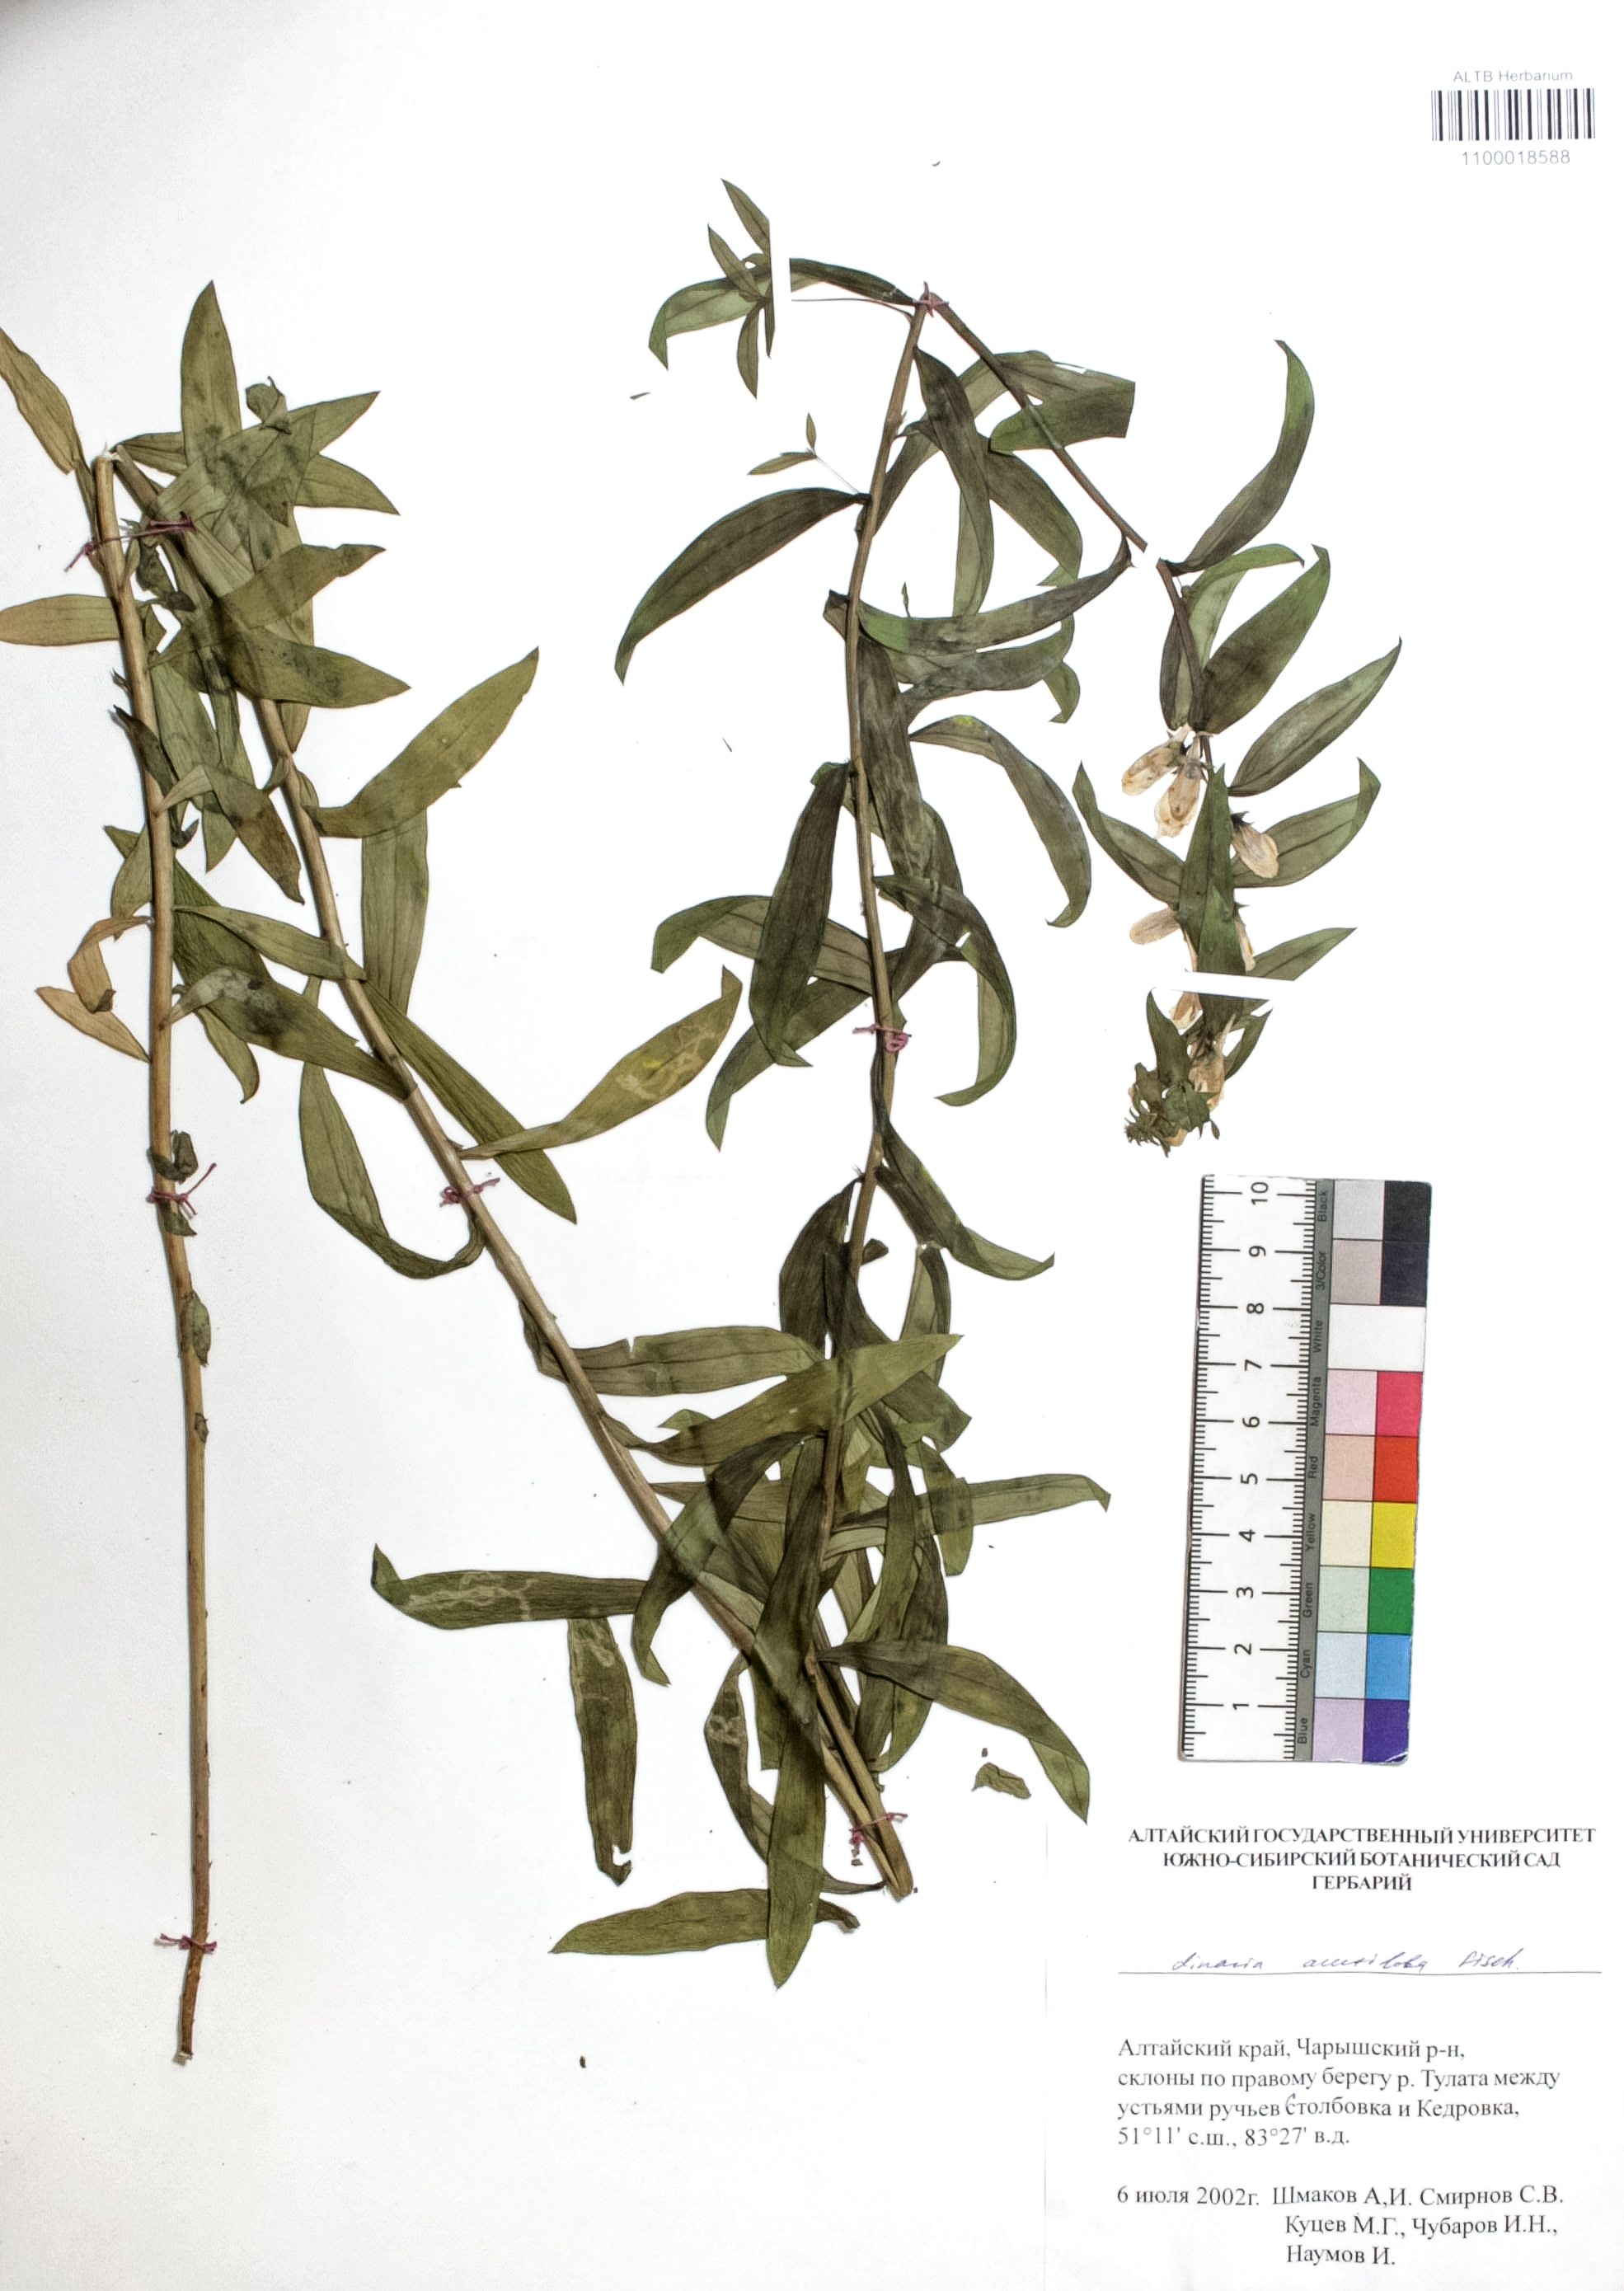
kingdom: Plantae
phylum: Tracheophyta
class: Magnoliopsida
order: Lamiales
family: Plantaginaceae
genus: Linaria
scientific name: Linaria acutiloba
